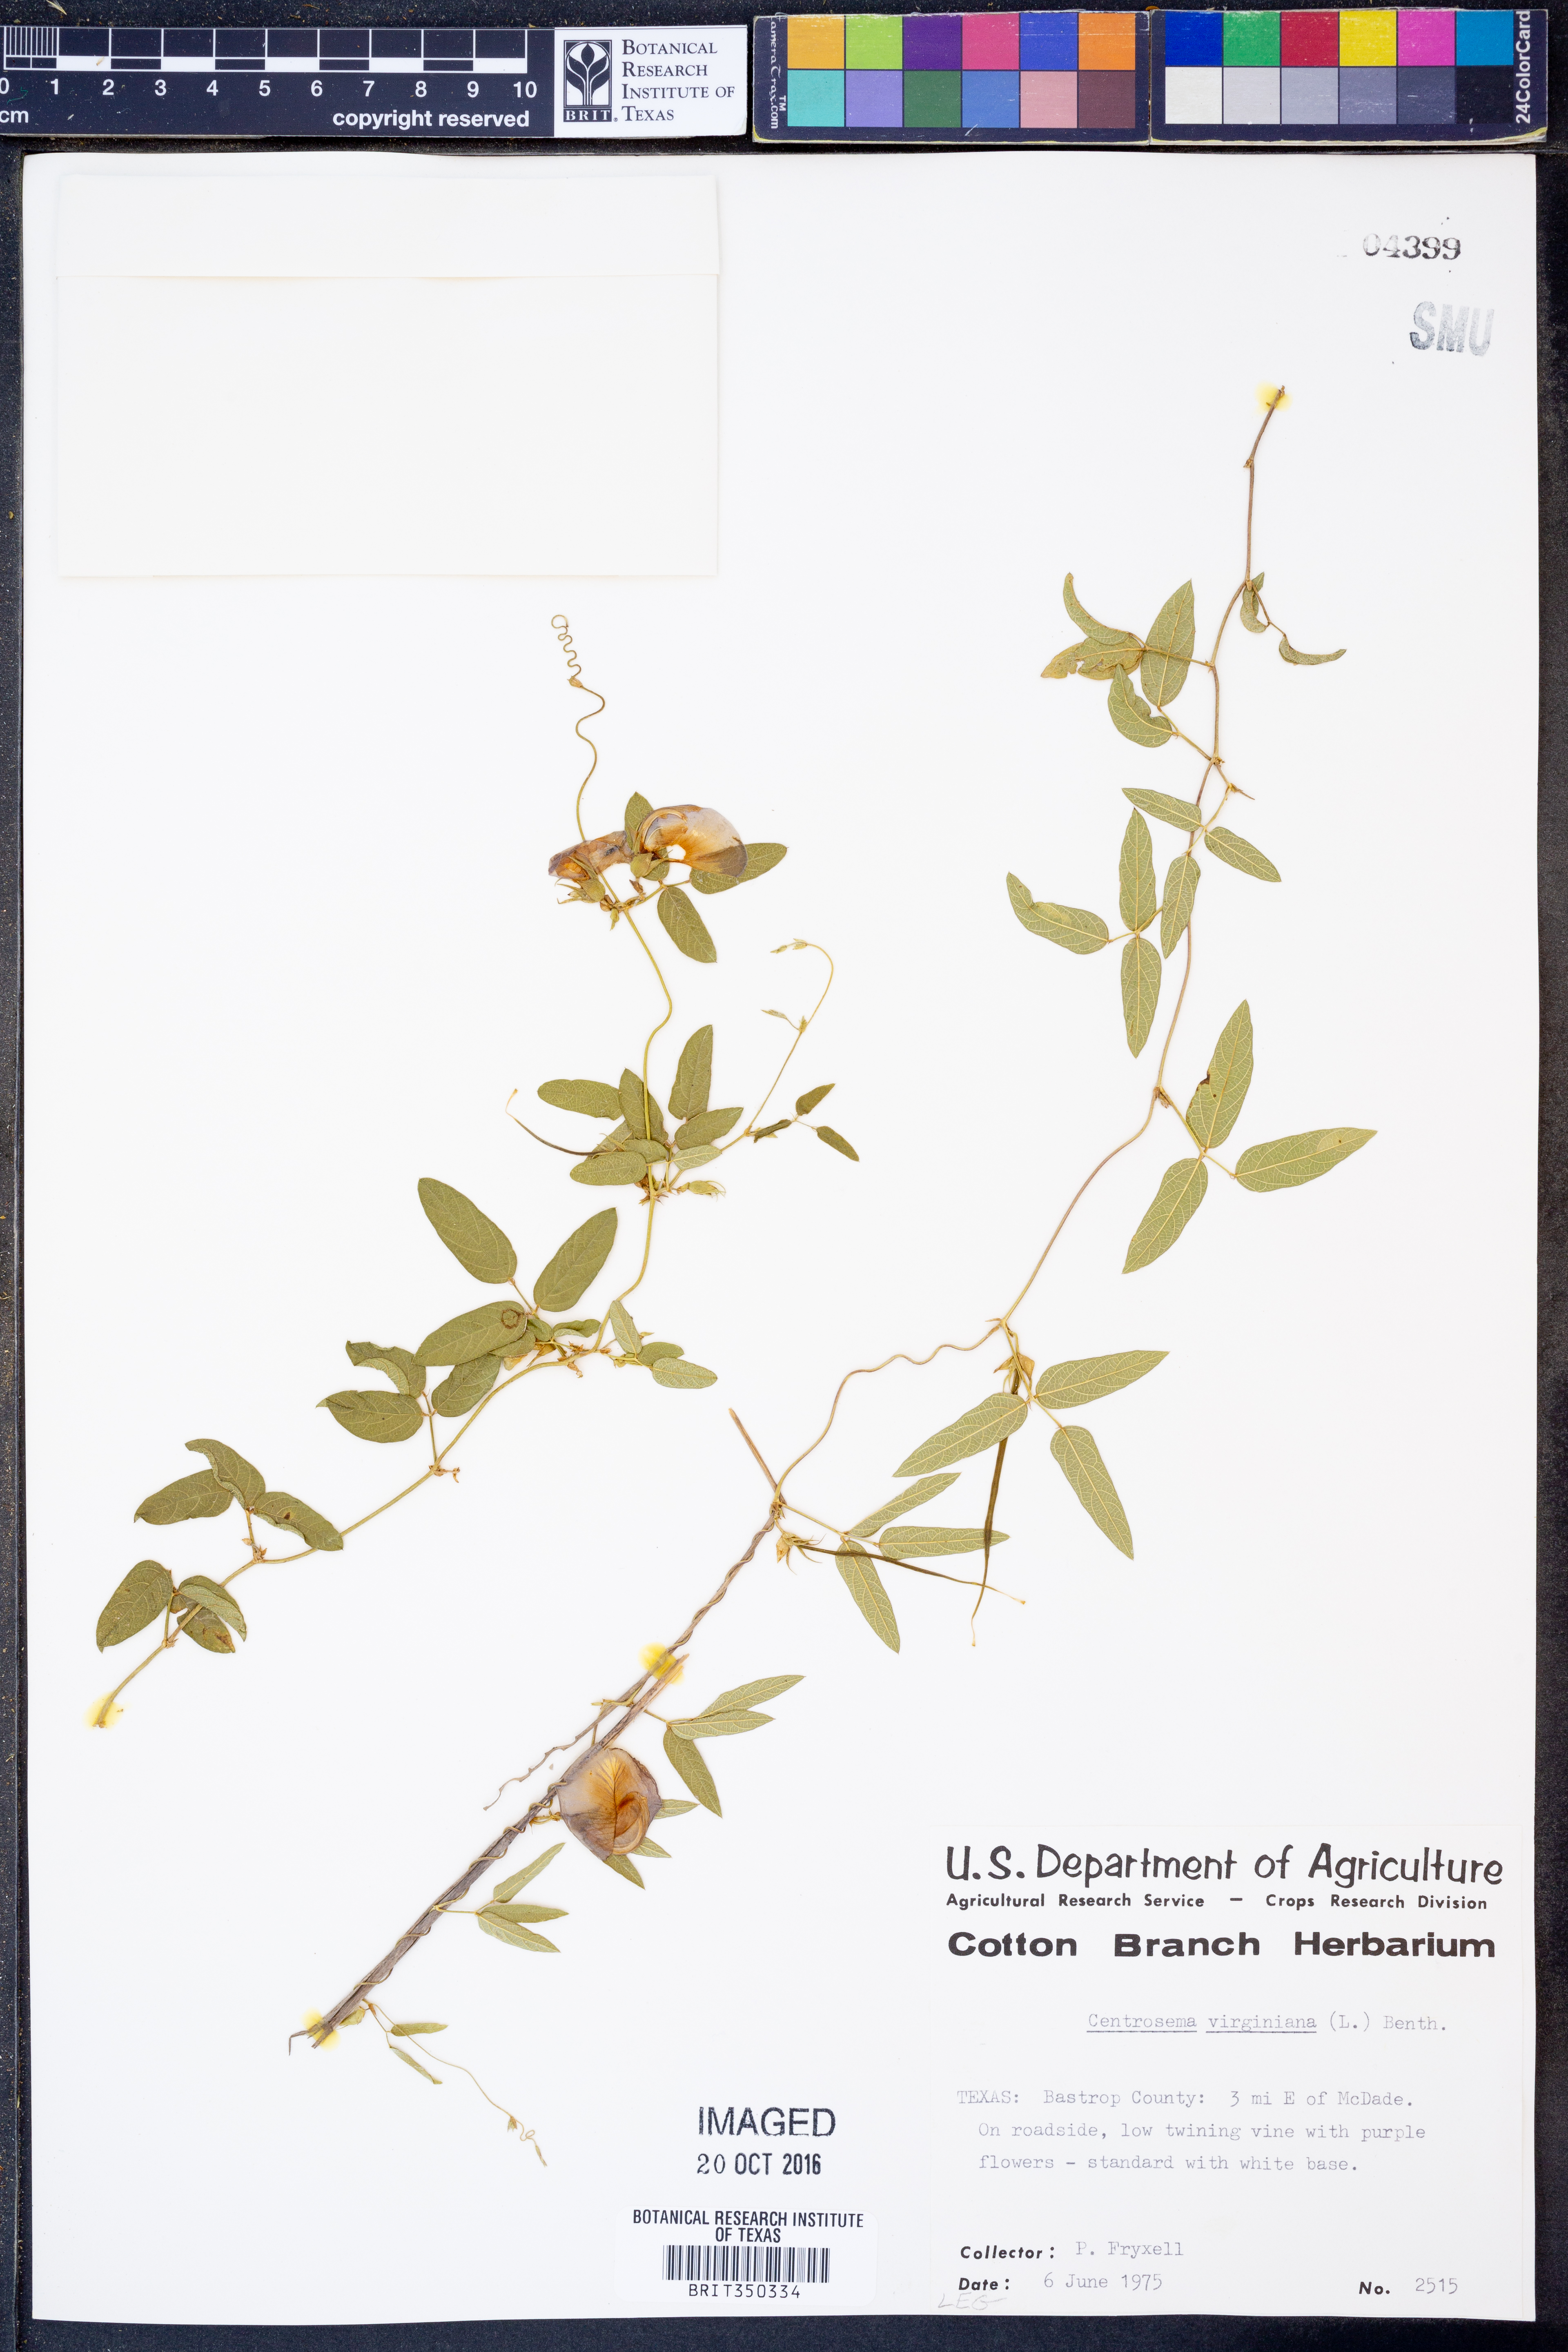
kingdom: Plantae
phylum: Tracheophyta
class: Magnoliopsida
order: Fabales
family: Fabaceae
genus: Centrosema
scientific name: Centrosema virginianum
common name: Butterfly-pea
